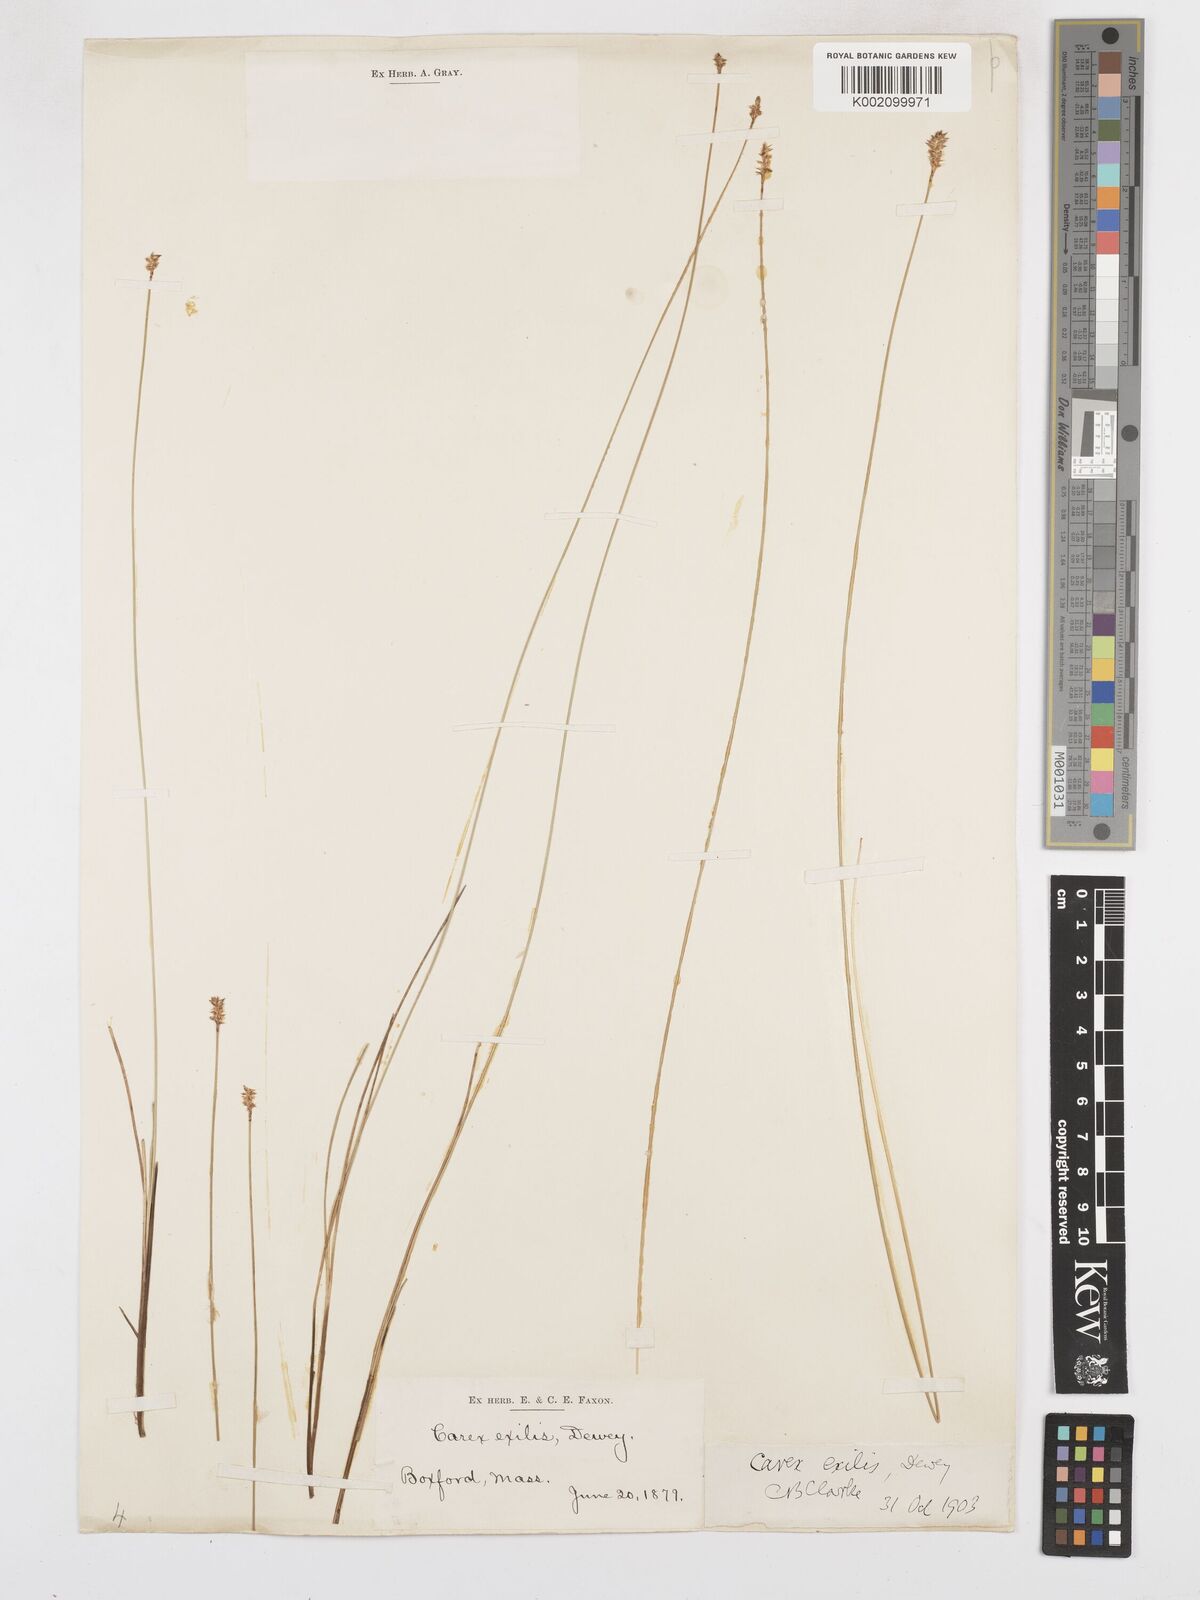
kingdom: Plantae
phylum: Tracheophyta
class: Liliopsida
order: Poales
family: Cyperaceae
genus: Carex
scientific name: Carex exilis
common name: Coastal sedge
